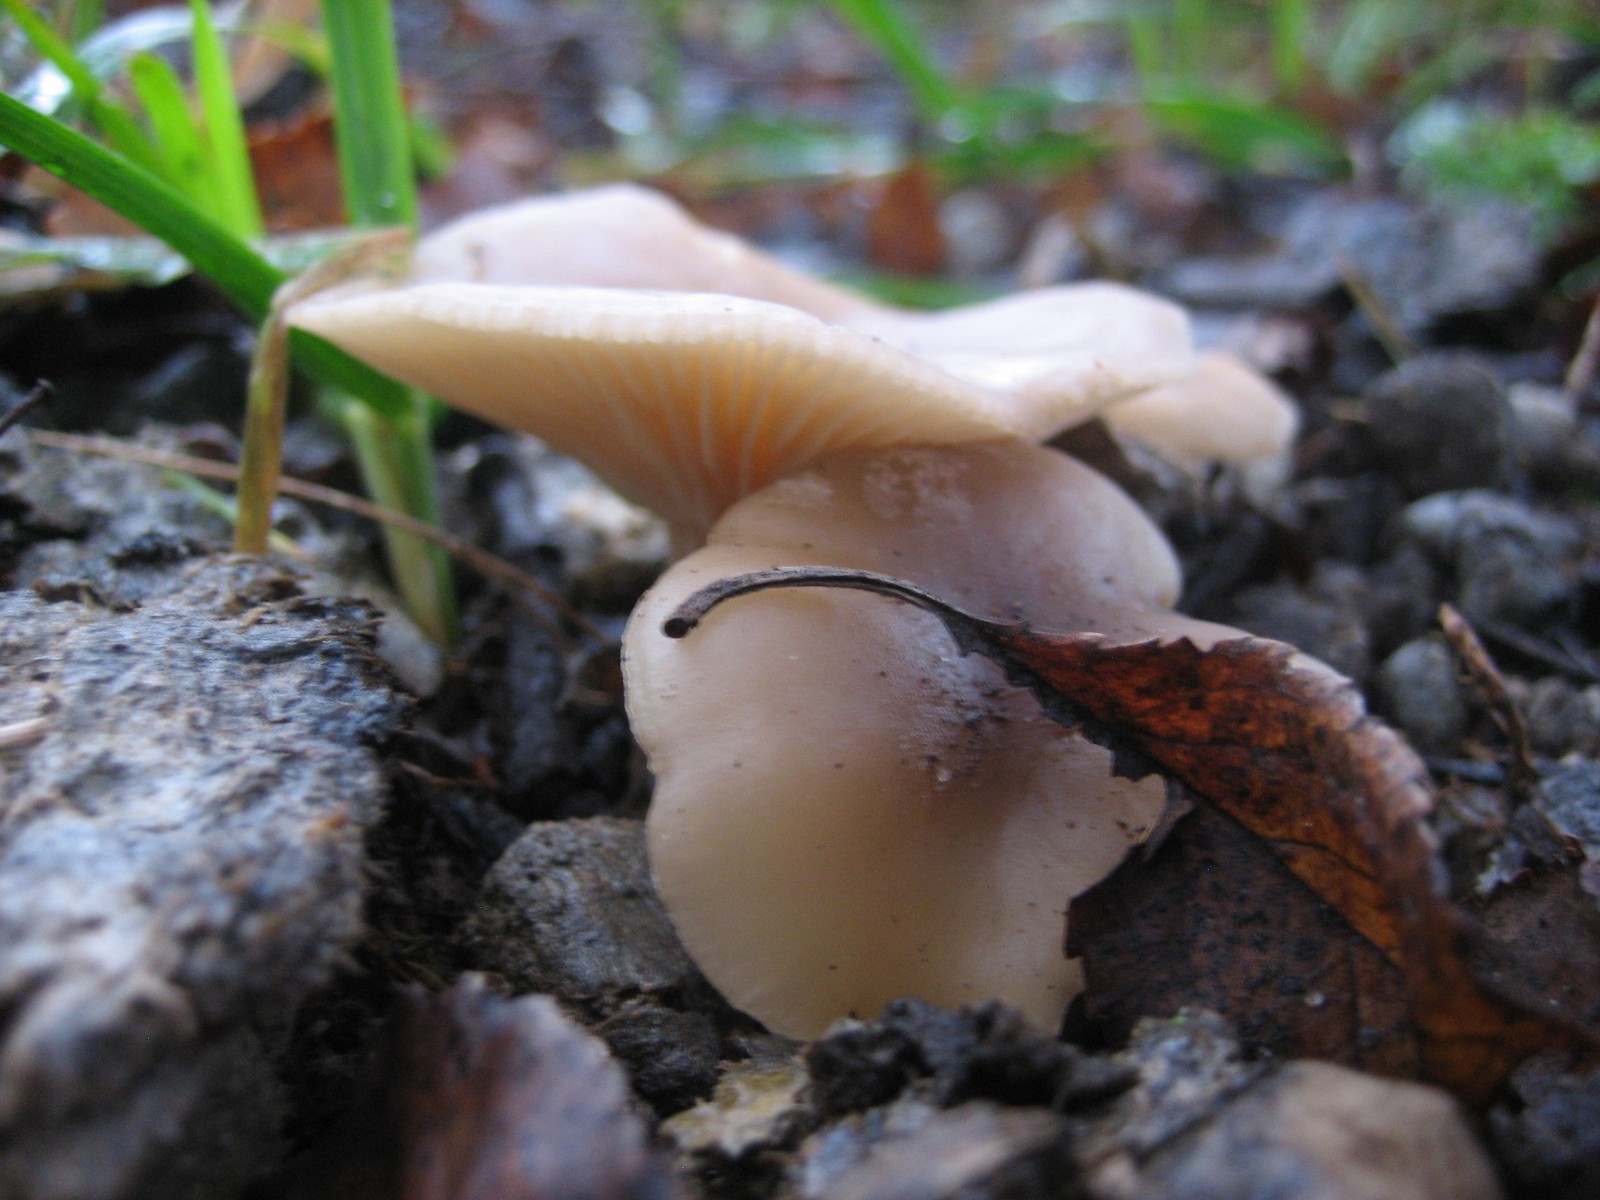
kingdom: Fungi
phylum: Basidiomycota
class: Agaricomycetes
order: Agaricales
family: Tricholomataceae
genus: Clitocybe
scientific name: Clitocybe
